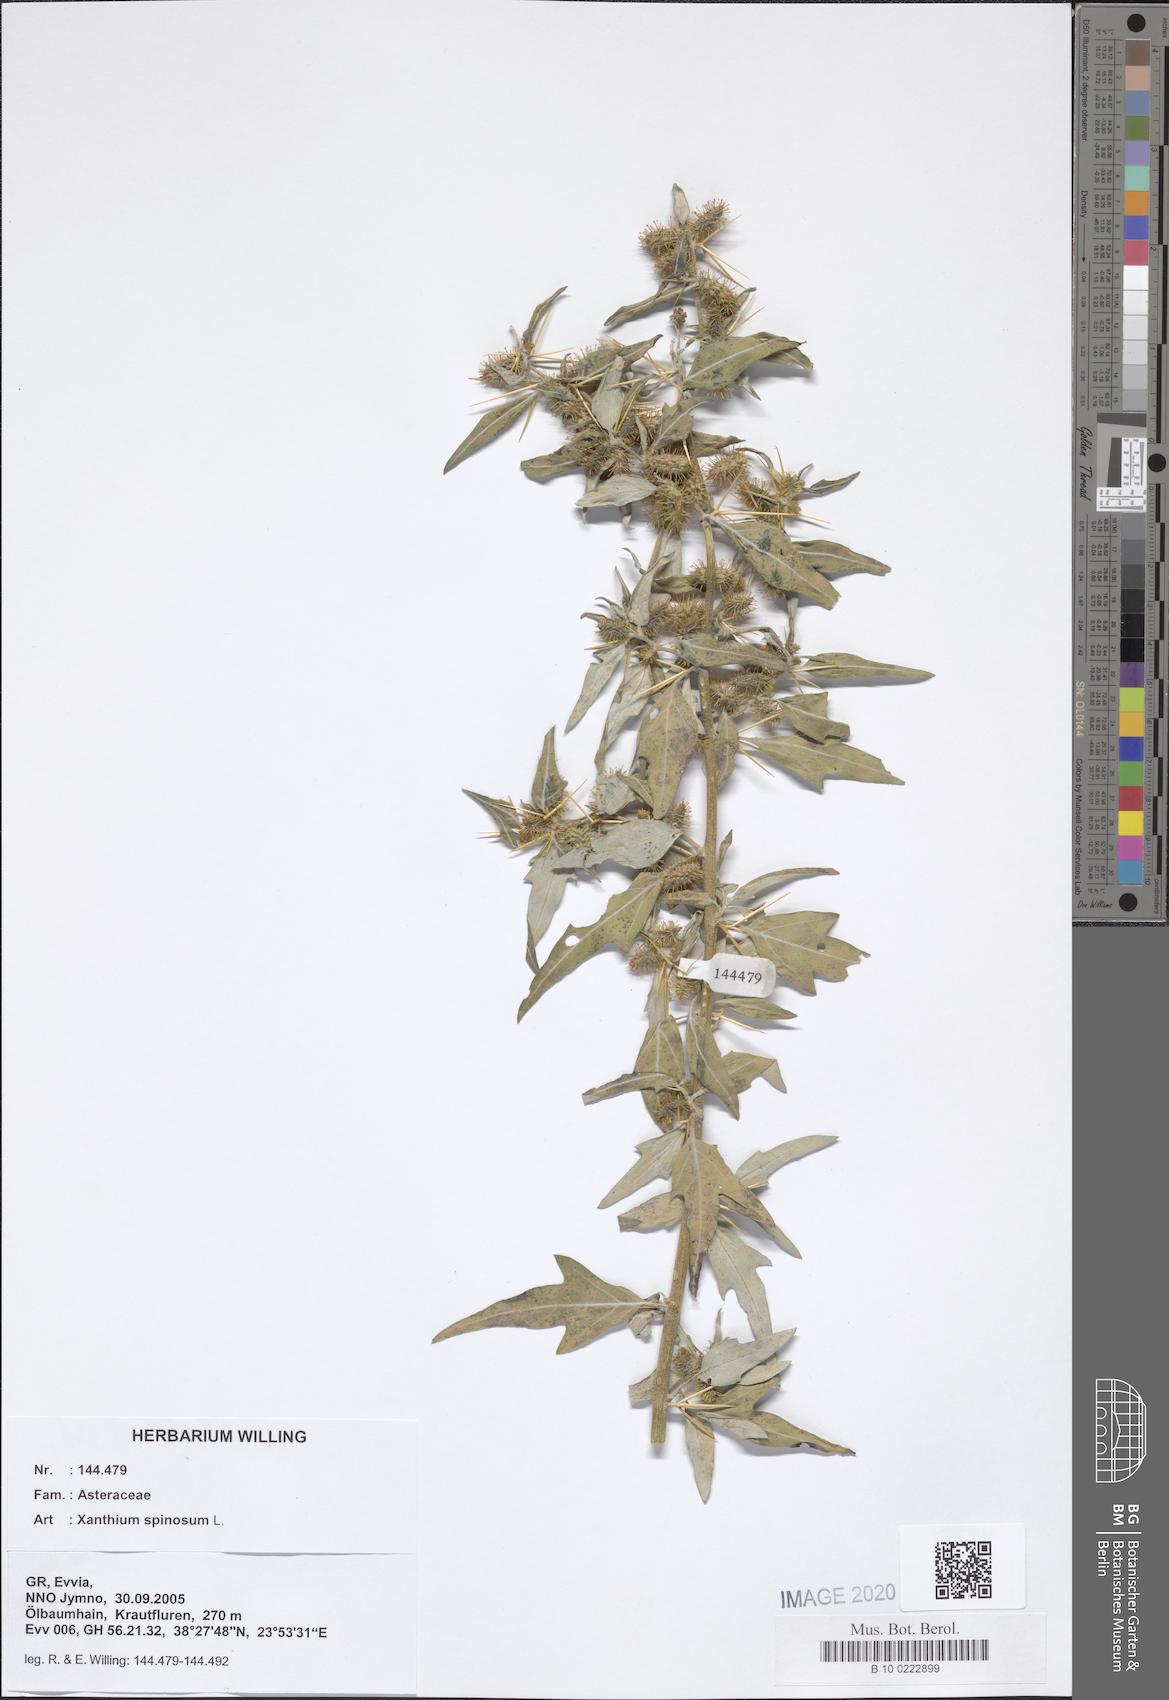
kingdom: Plantae
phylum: Tracheophyta
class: Magnoliopsida
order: Asterales
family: Asteraceae
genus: Xanthium
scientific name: Xanthium spinosum
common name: Spiny cocklebur
